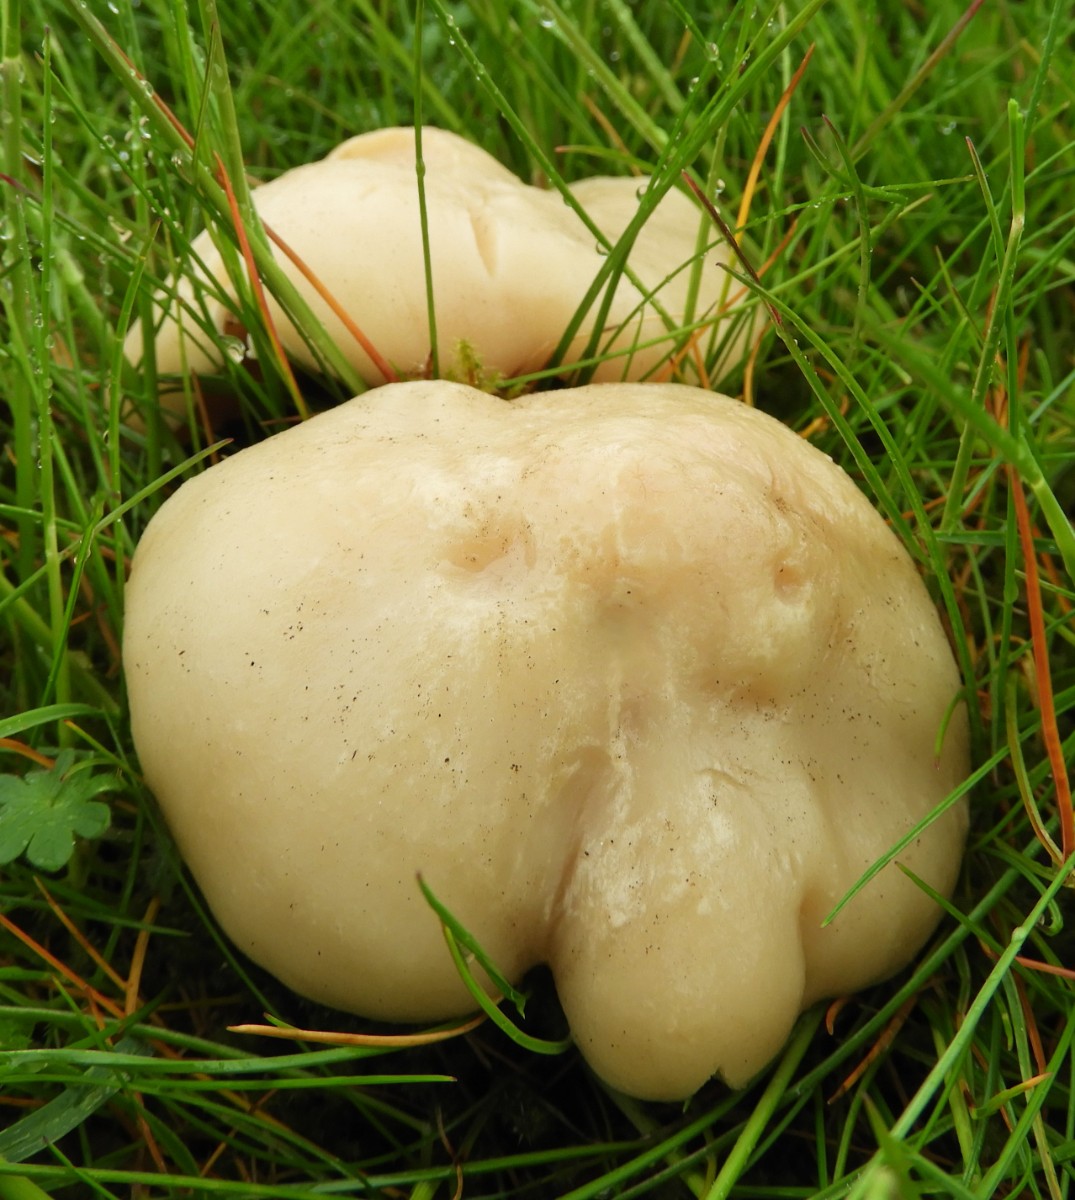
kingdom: Fungi
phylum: Basidiomycota
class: Agaricomycetes
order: Agaricales
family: Lyophyllaceae
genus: Calocybe
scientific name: Calocybe gambosa
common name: vårmusseron
